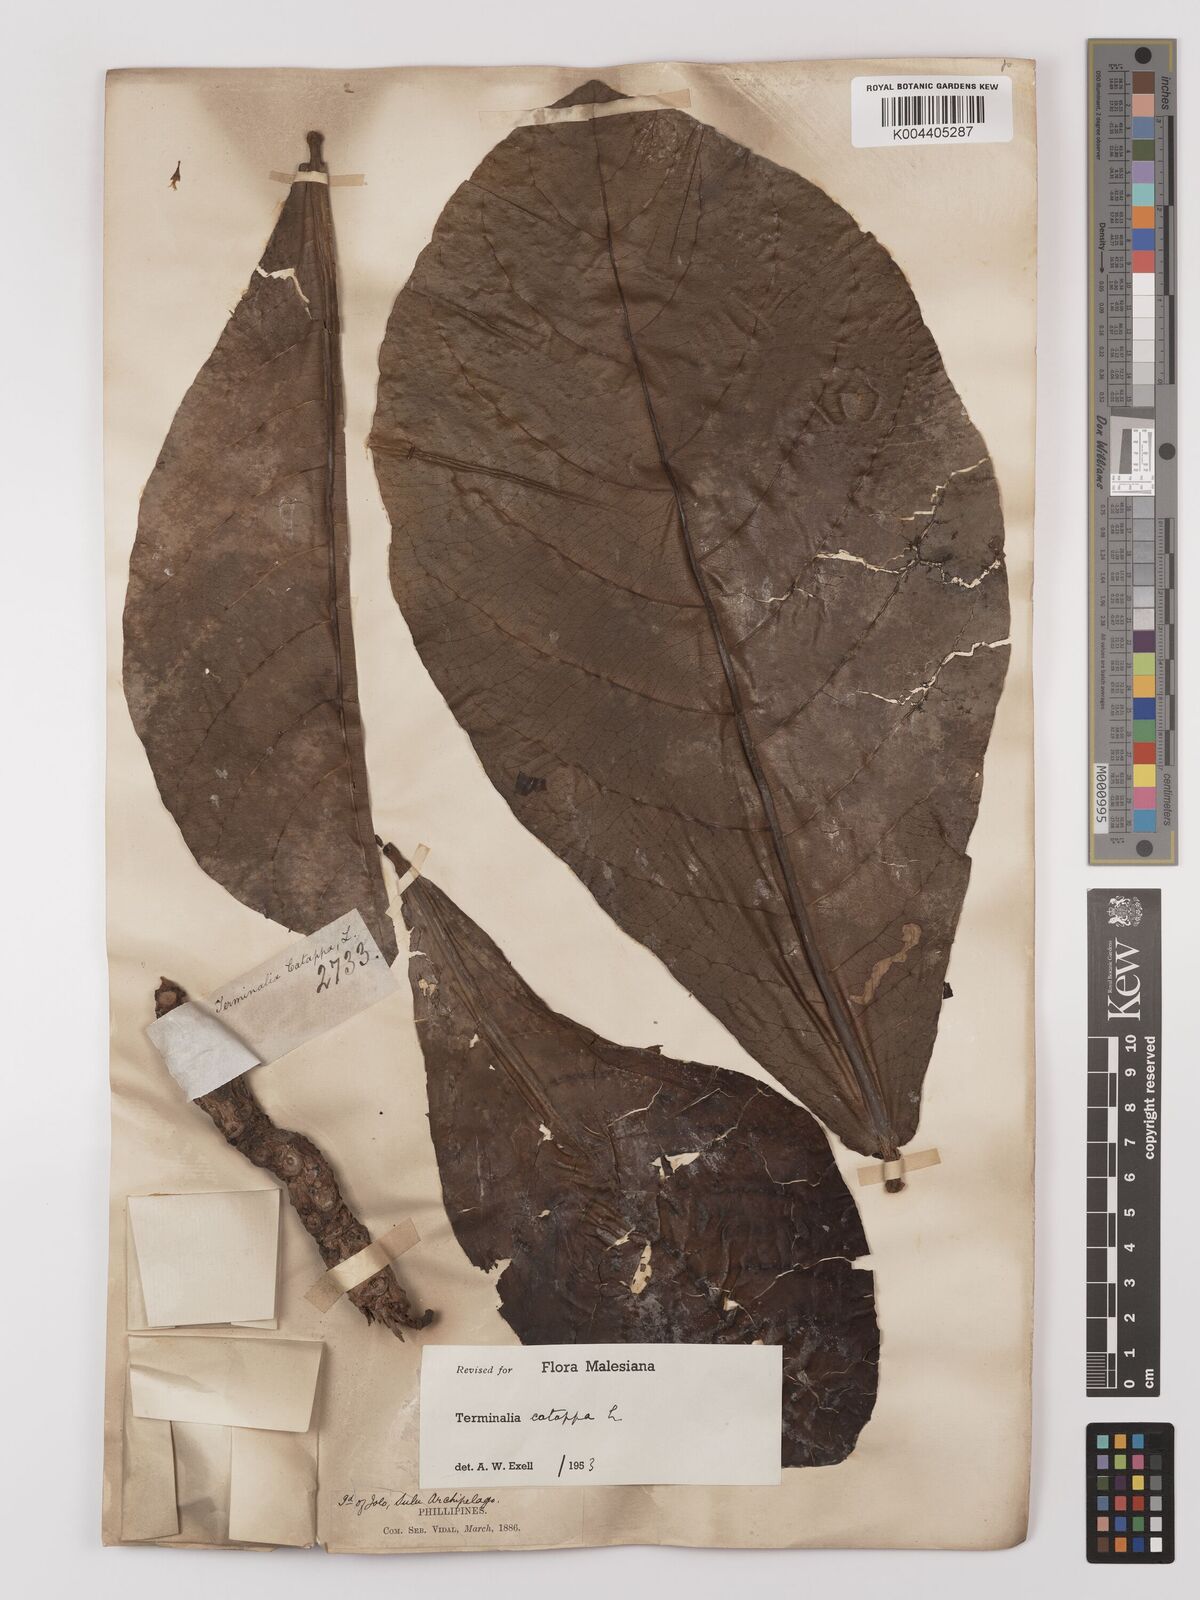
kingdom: Plantae
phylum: Tracheophyta
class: Magnoliopsida
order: Myrtales
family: Combretaceae
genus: Terminalia
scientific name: Terminalia catappa
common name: Tropical almond
